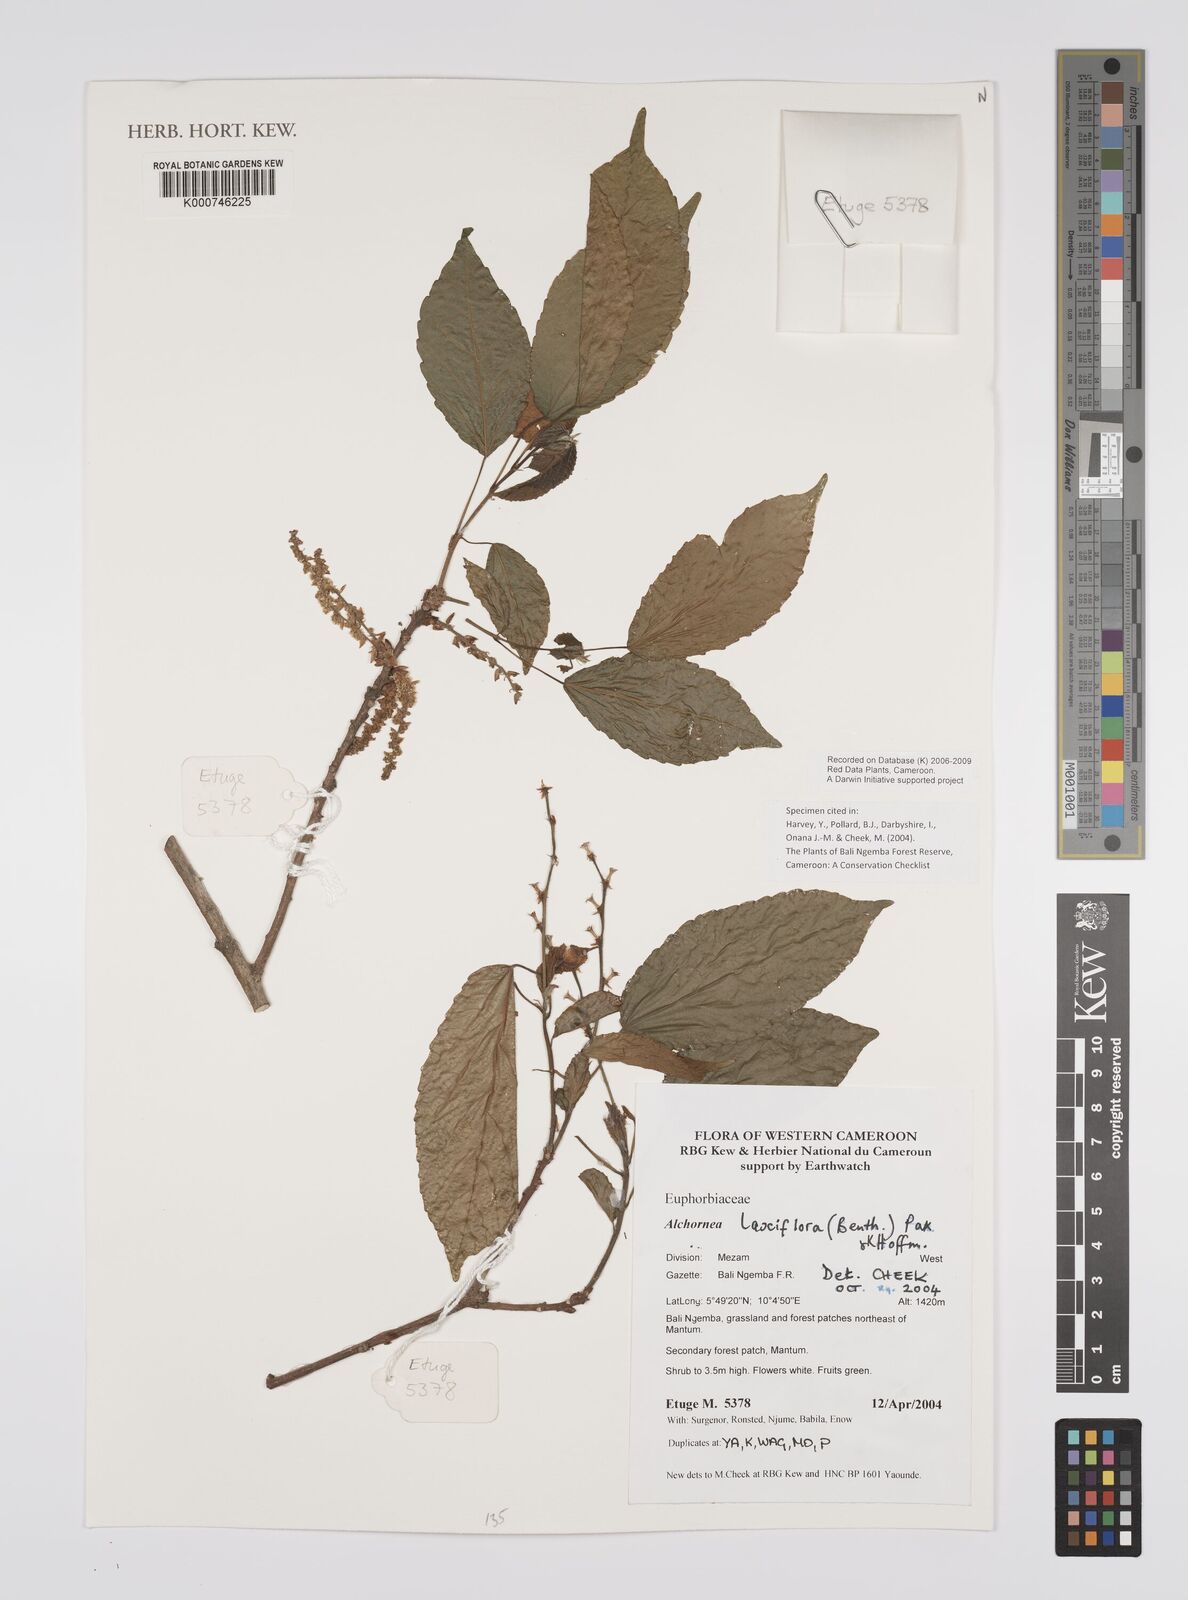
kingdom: Plantae
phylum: Tracheophyta
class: Magnoliopsida
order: Malpighiales
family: Euphorbiaceae
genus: Alchornea
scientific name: Alchornea laxiflora
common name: Lowveld bead-string
